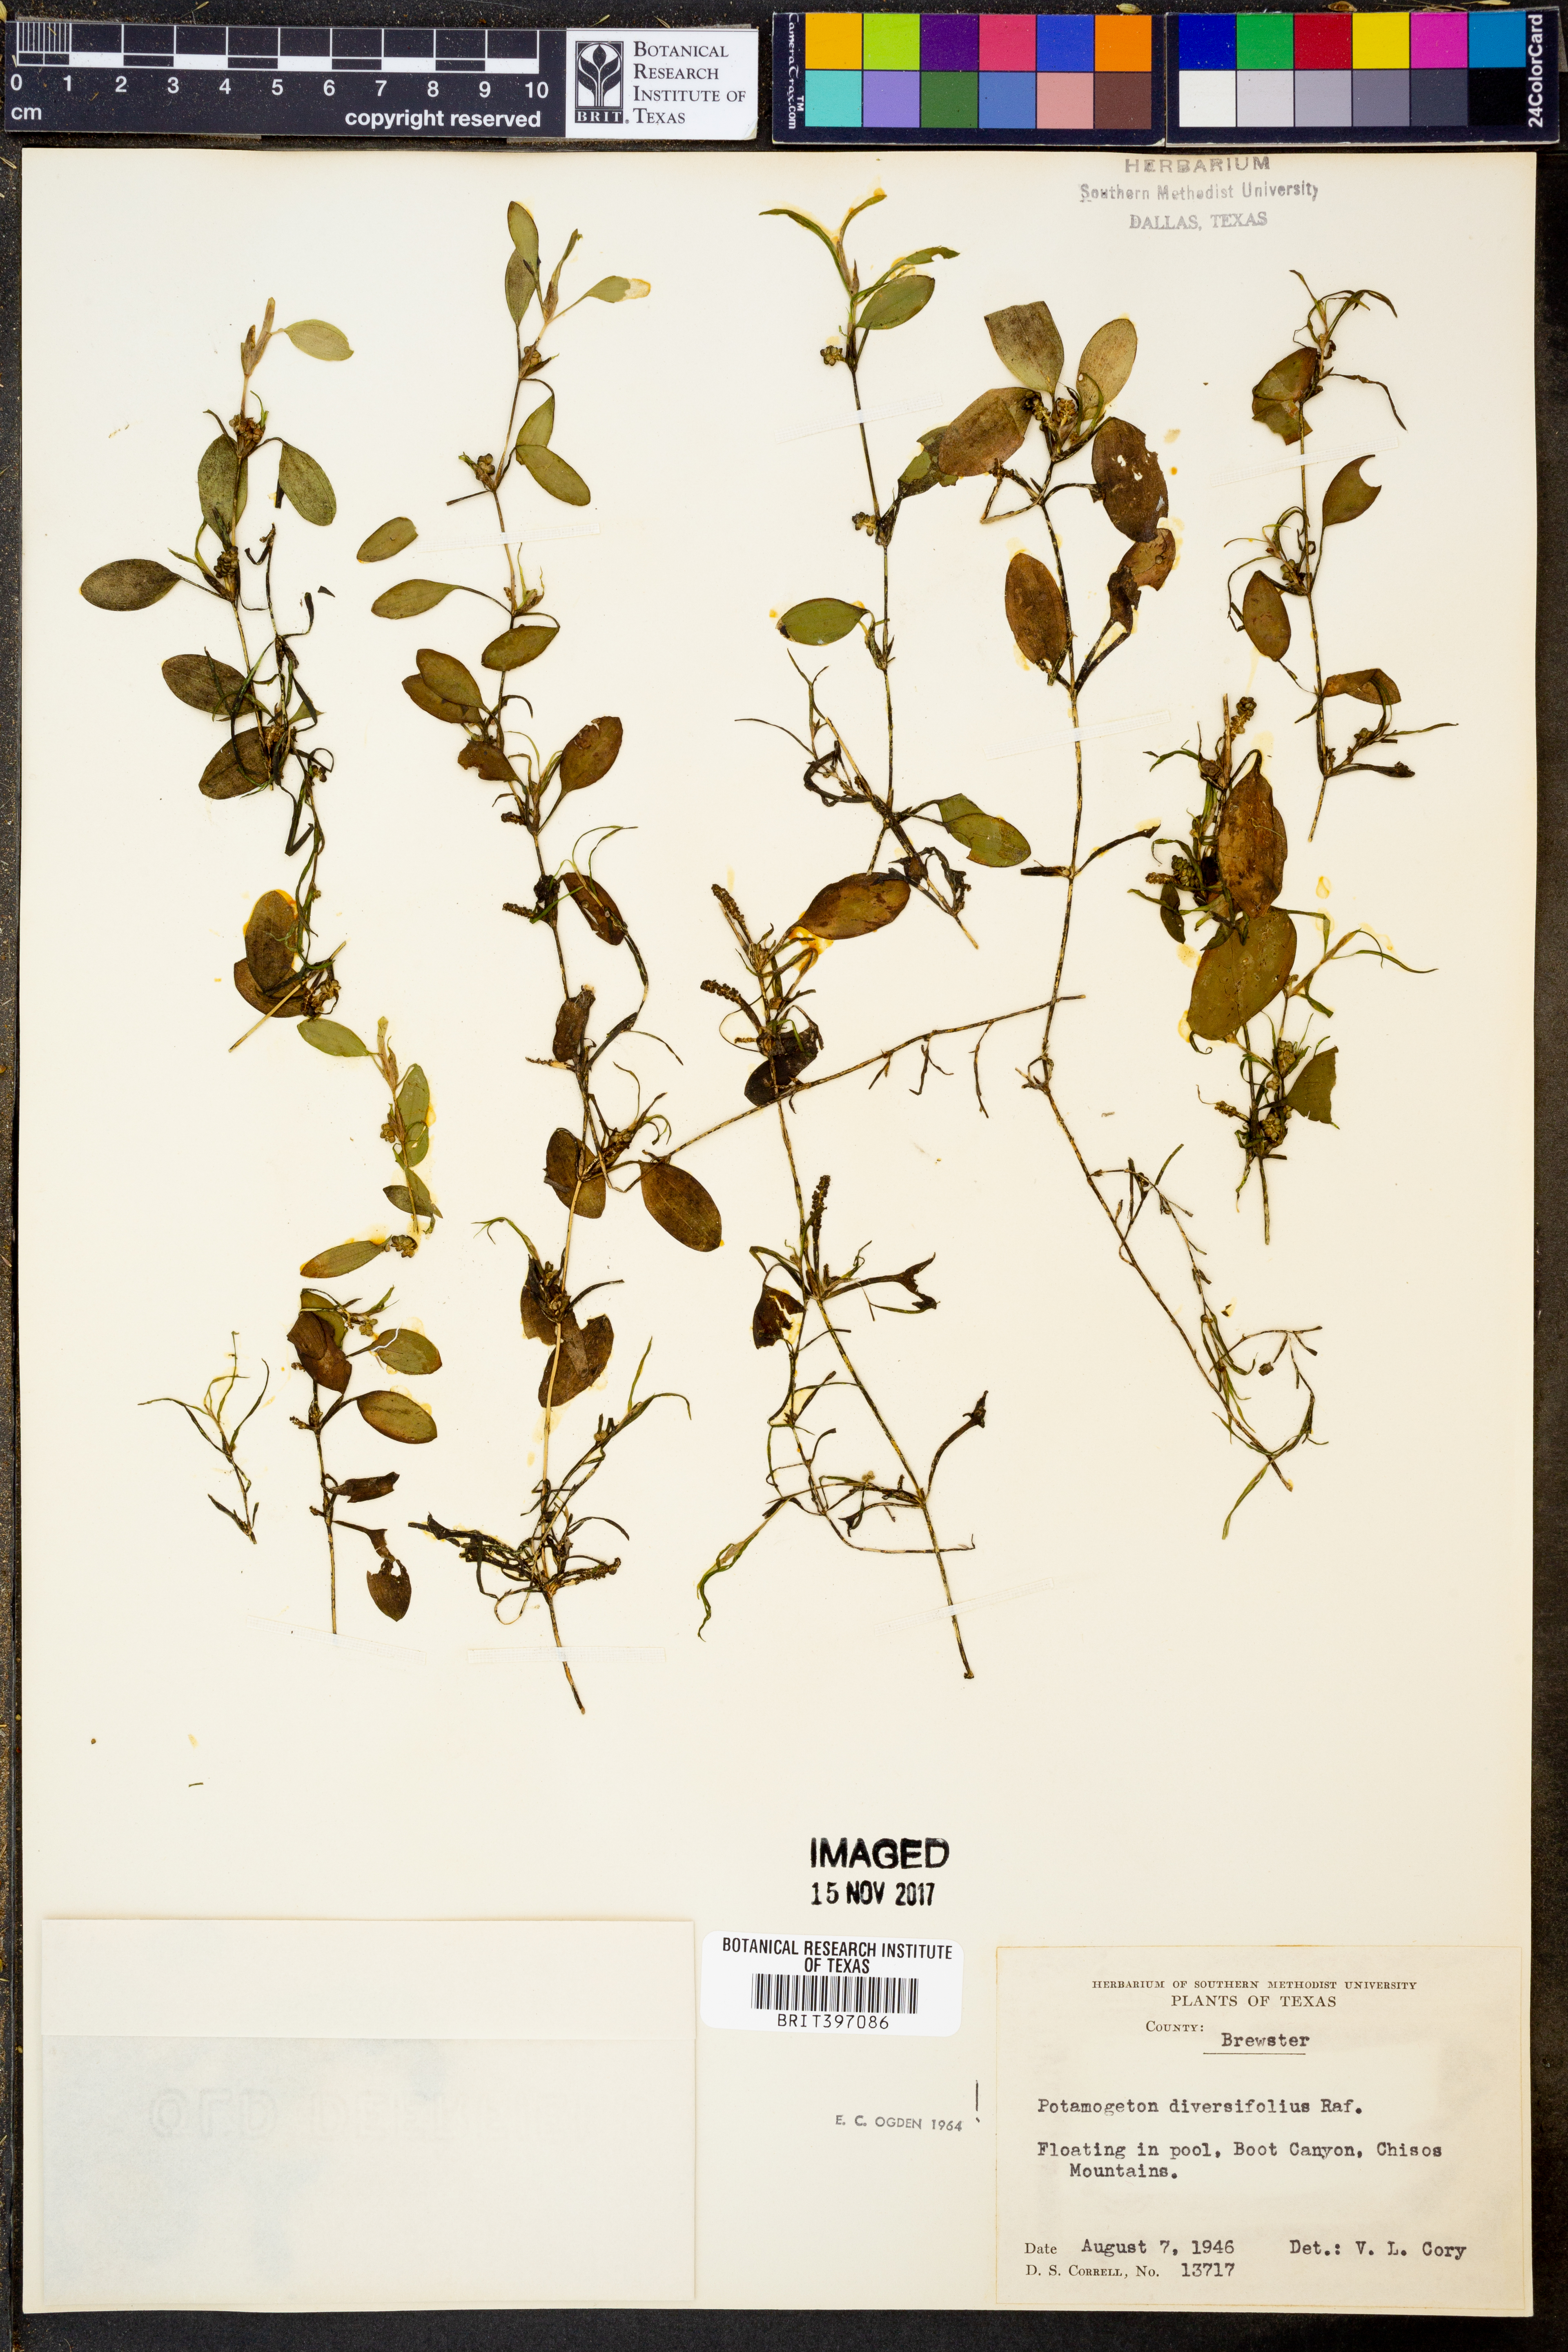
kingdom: Plantae
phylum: Tracheophyta
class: Liliopsida
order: Alismatales
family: Potamogetonaceae
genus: Potamogeton
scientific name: Potamogeton diversifolius
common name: Water-thread pondweed
